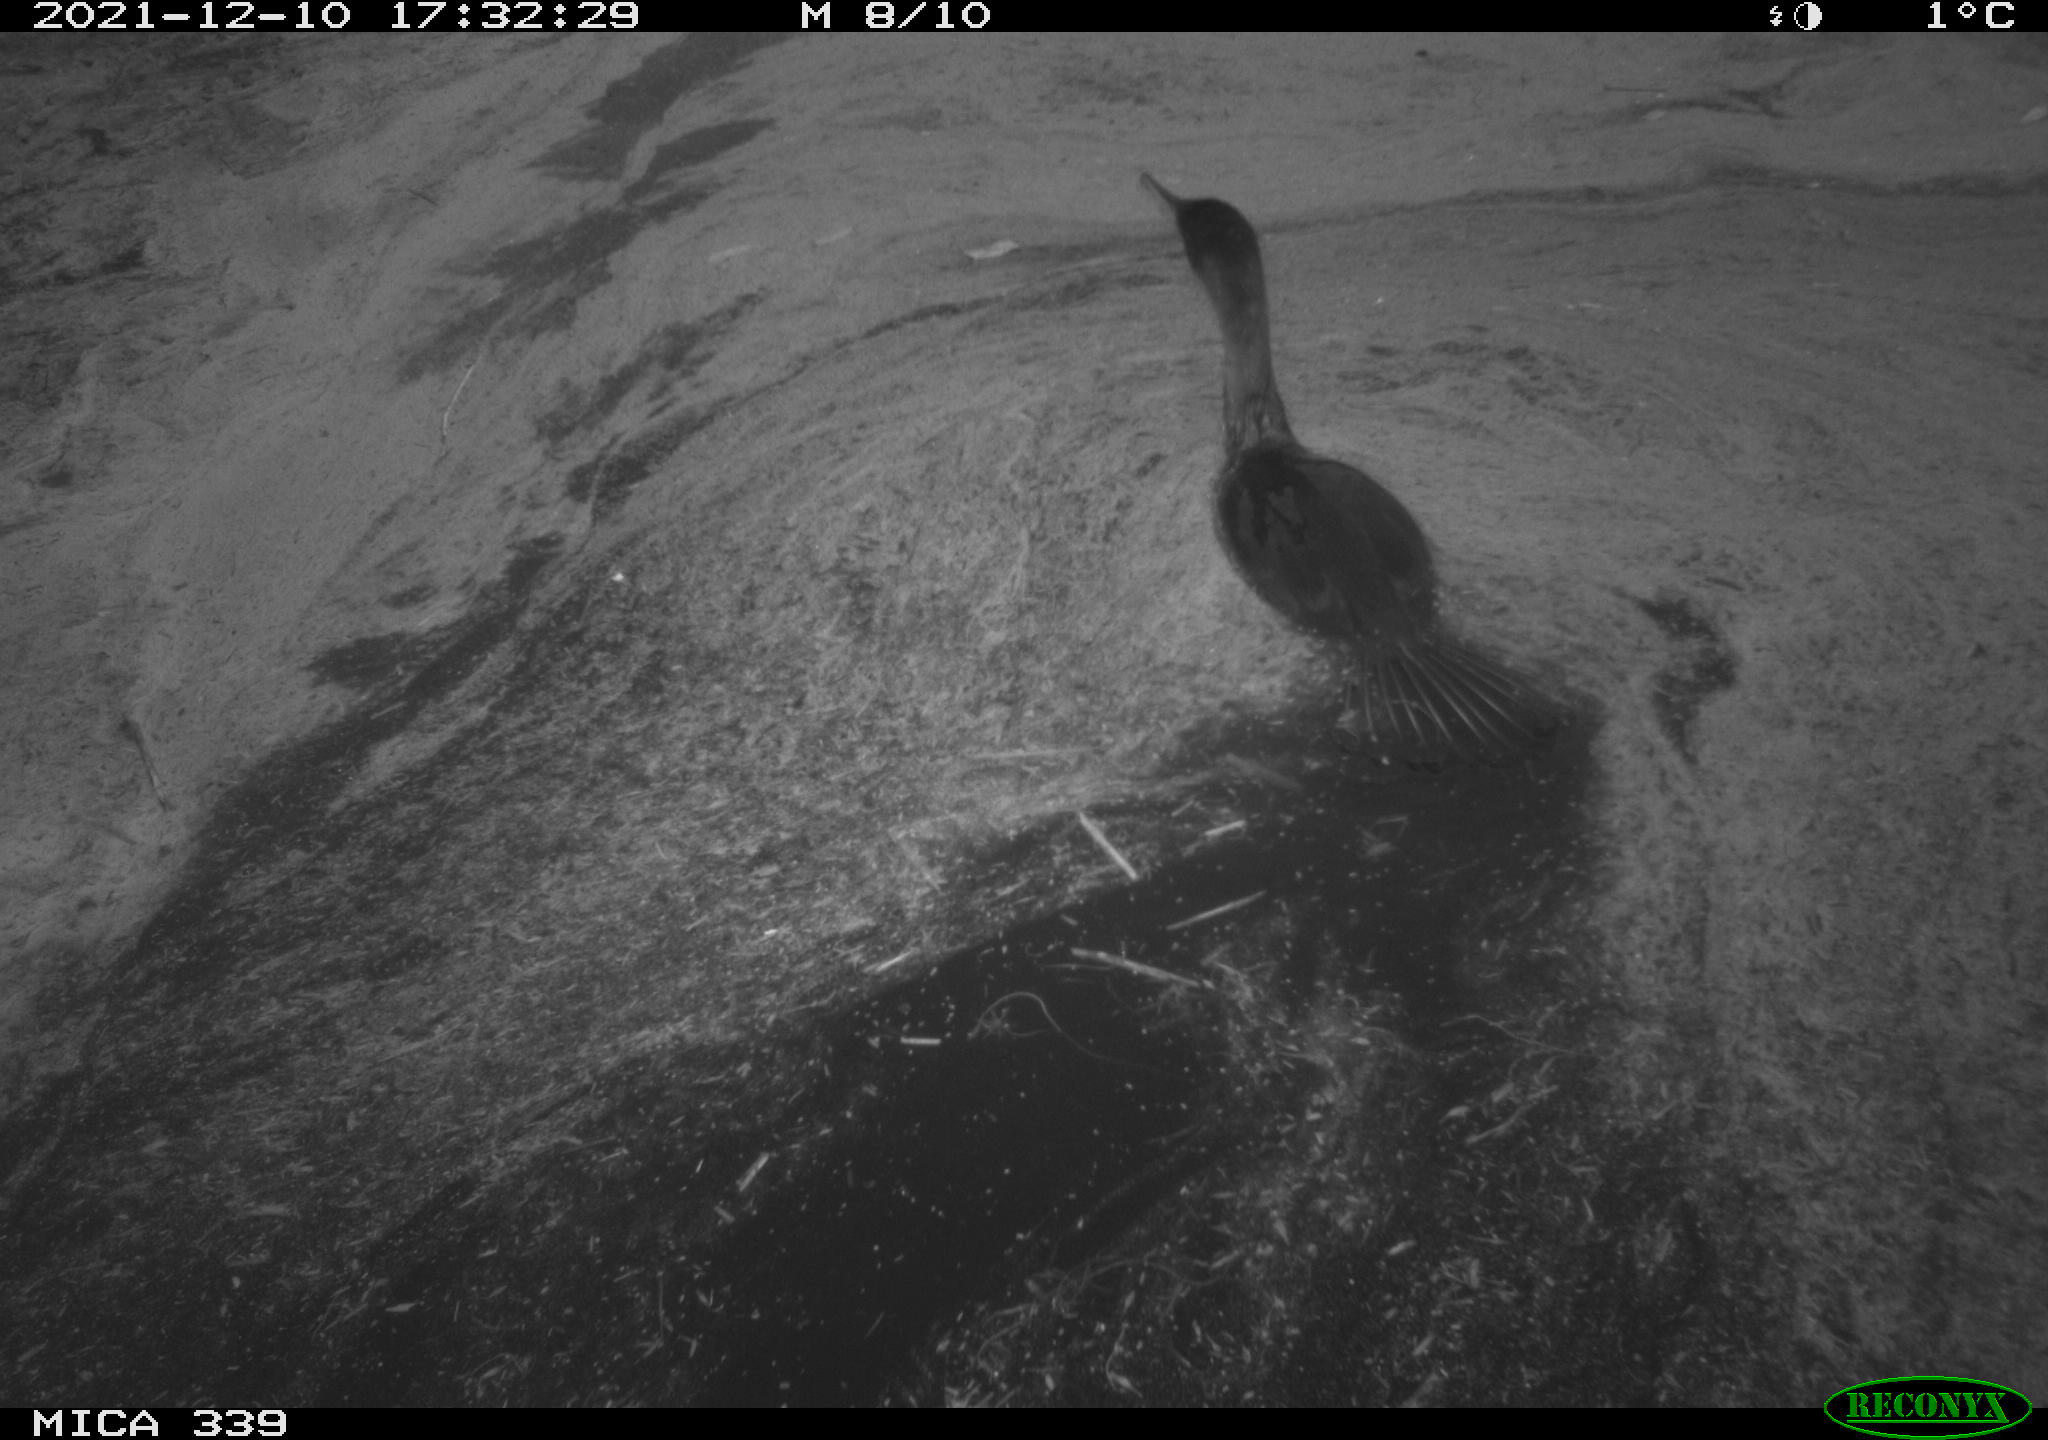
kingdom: Animalia
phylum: Chordata
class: Aves
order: Suliformes
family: Phalacrocoracidae
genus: Phalacrocorax
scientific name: Phalacrocorax carbo
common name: Great cormorant
